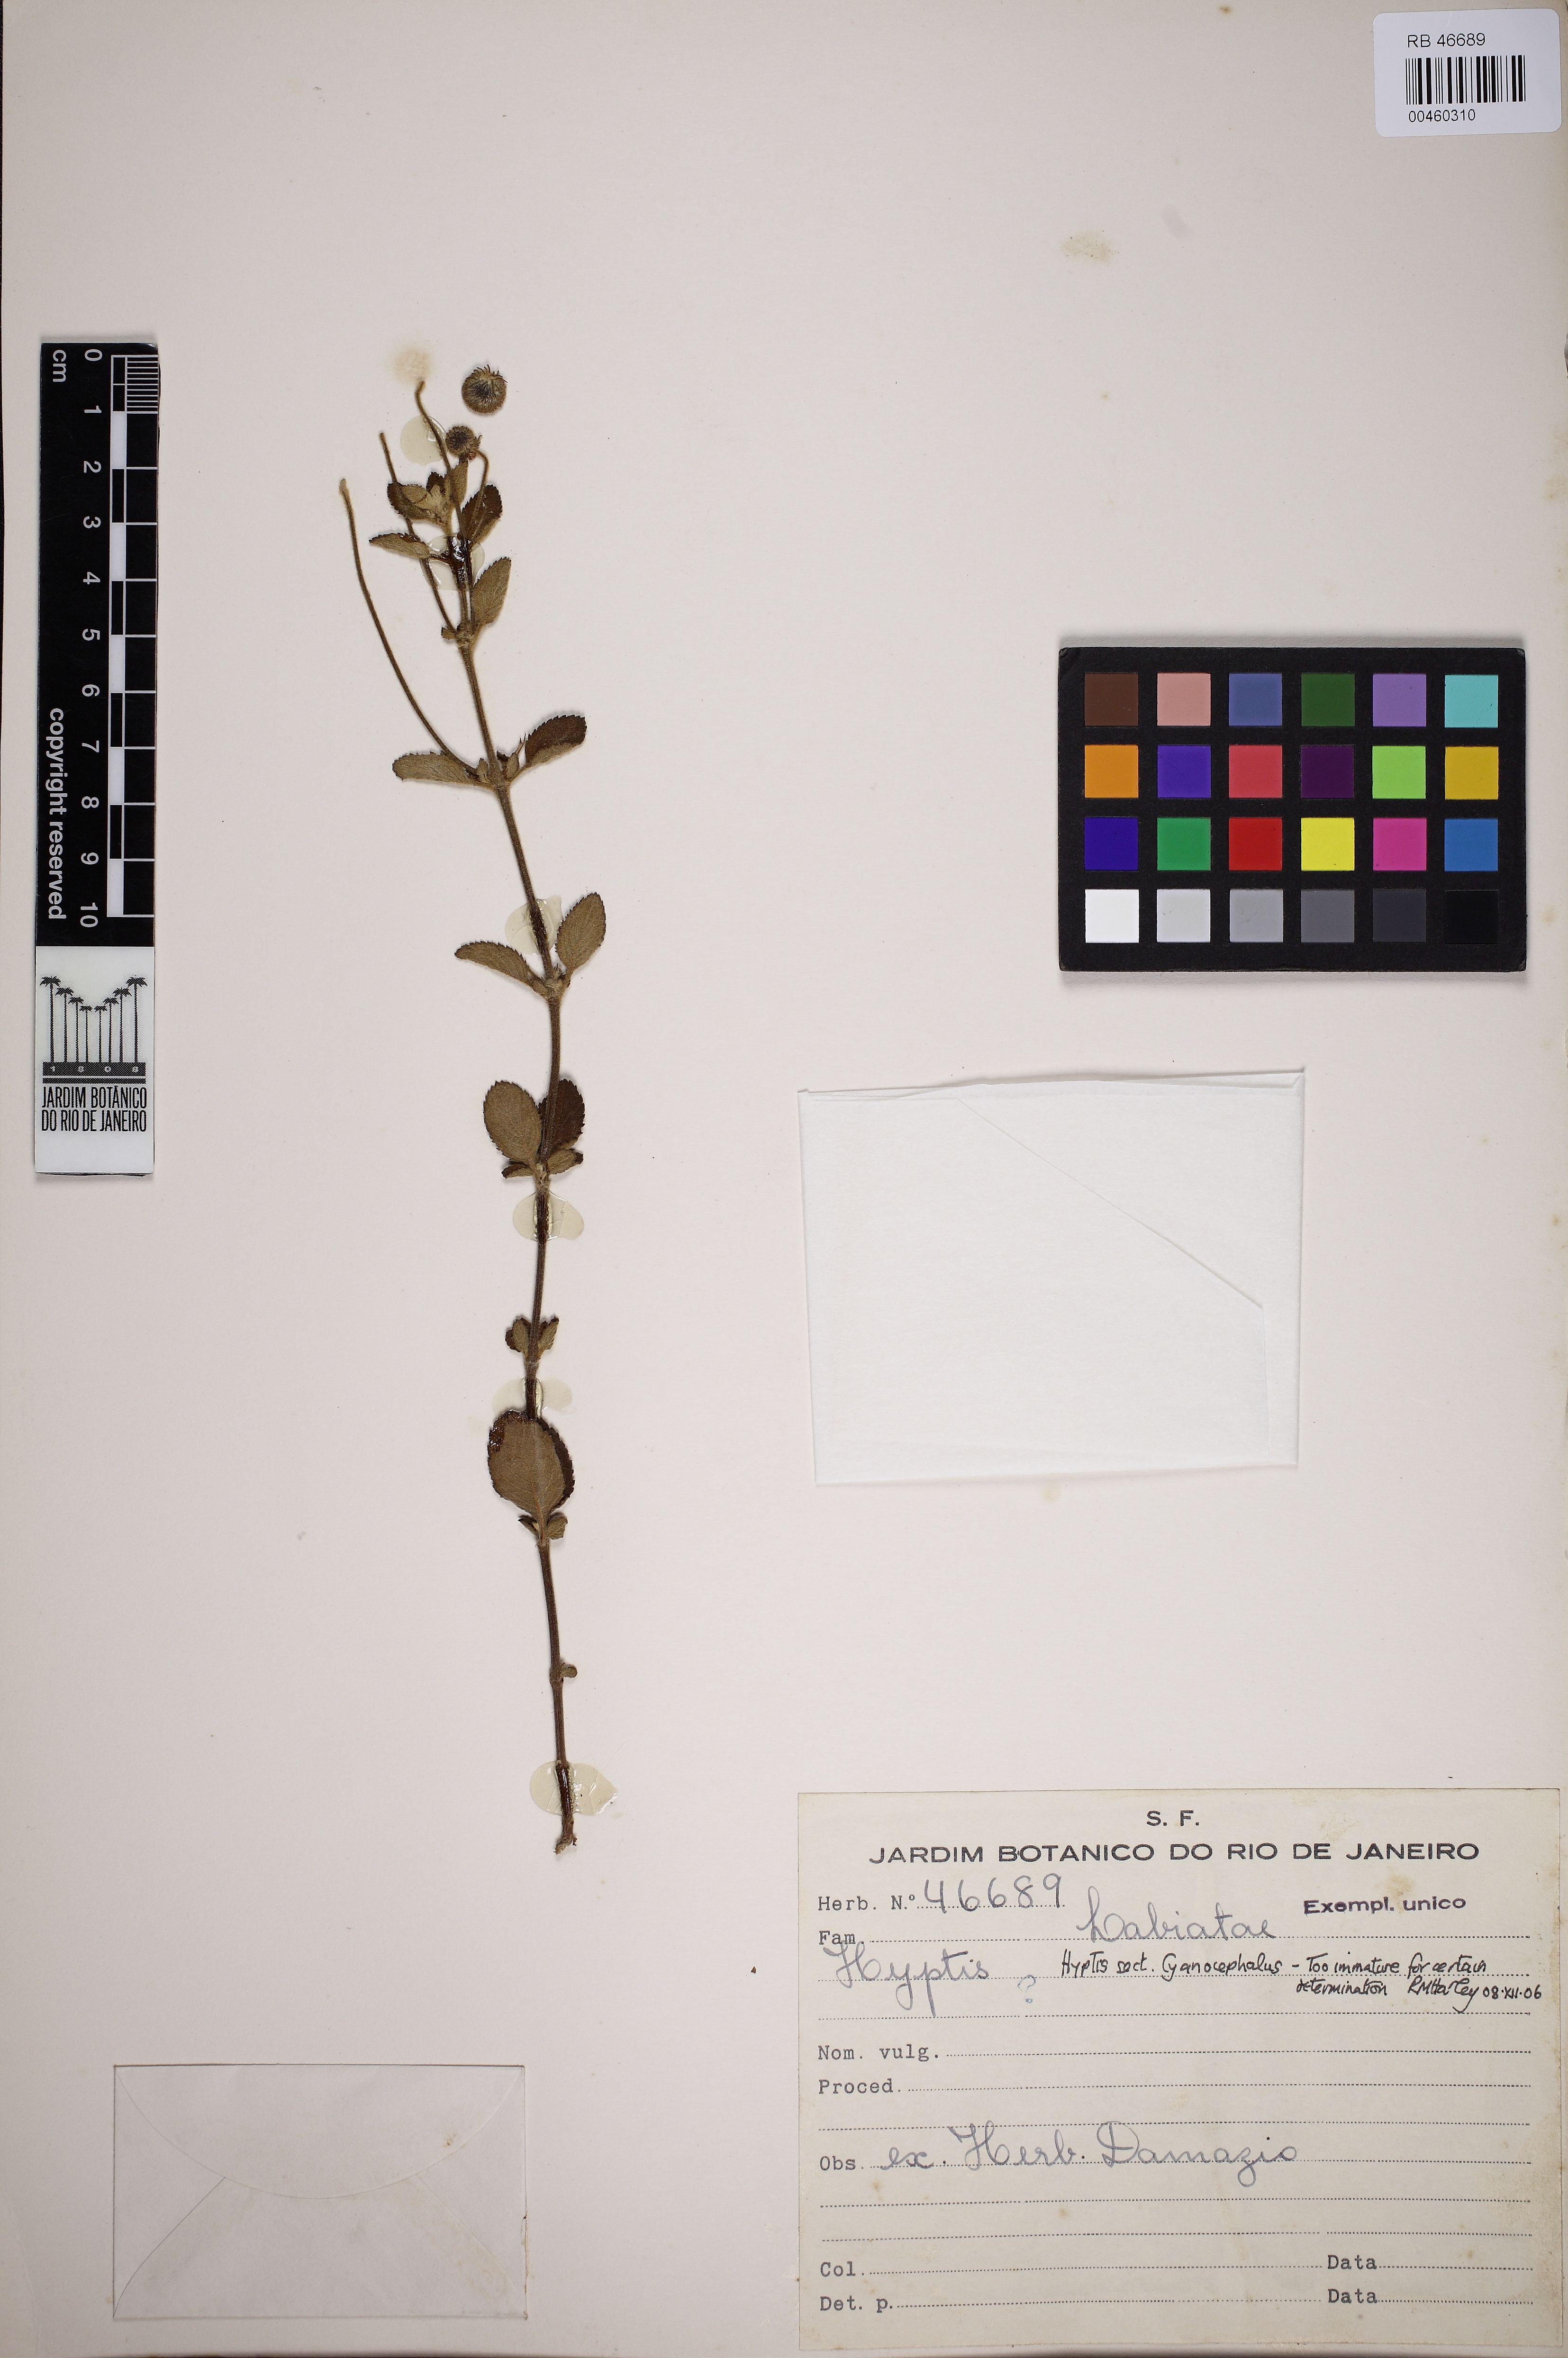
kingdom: Plantae
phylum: Tracheophyta
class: Magnoliopsida
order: Lamiales
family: Lamiaceae
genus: Cyanocephalus
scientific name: Cyanocephalus rugosus
